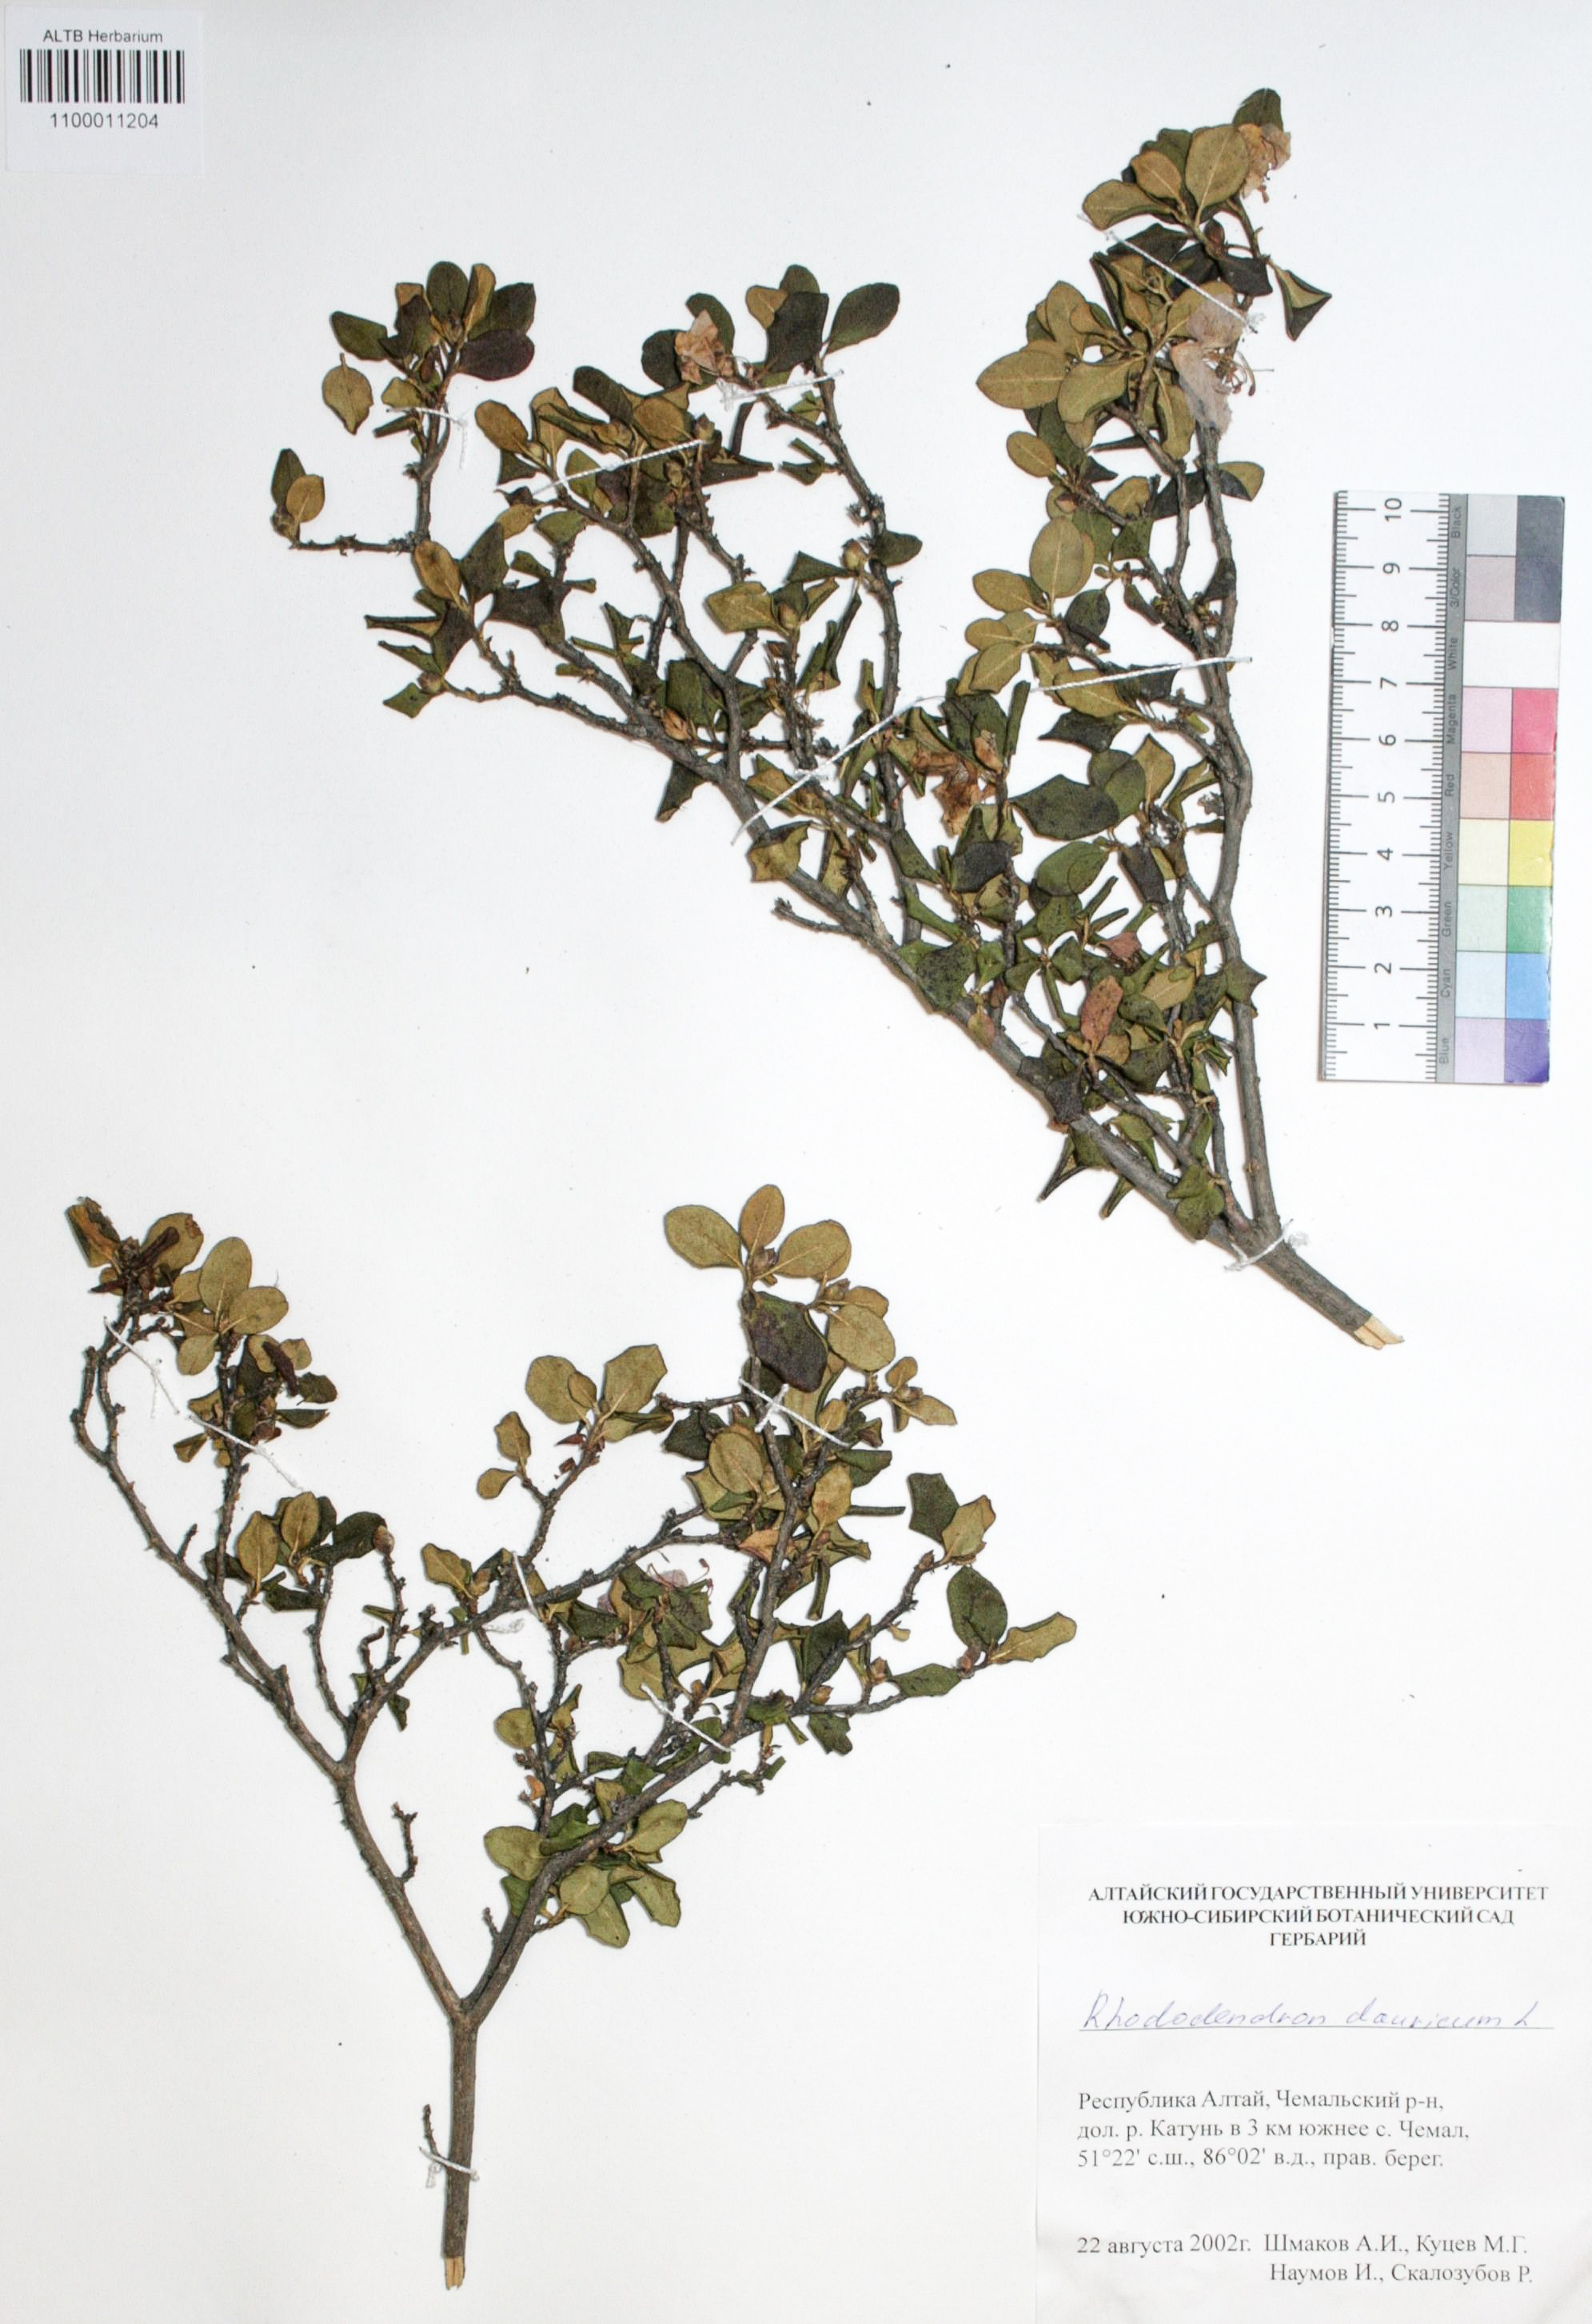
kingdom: Plantae
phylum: Tracheophyta
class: Magnoliopsida
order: Ericales
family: Ericaceae
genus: Rhododendron
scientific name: Rhododendron dahuricum
